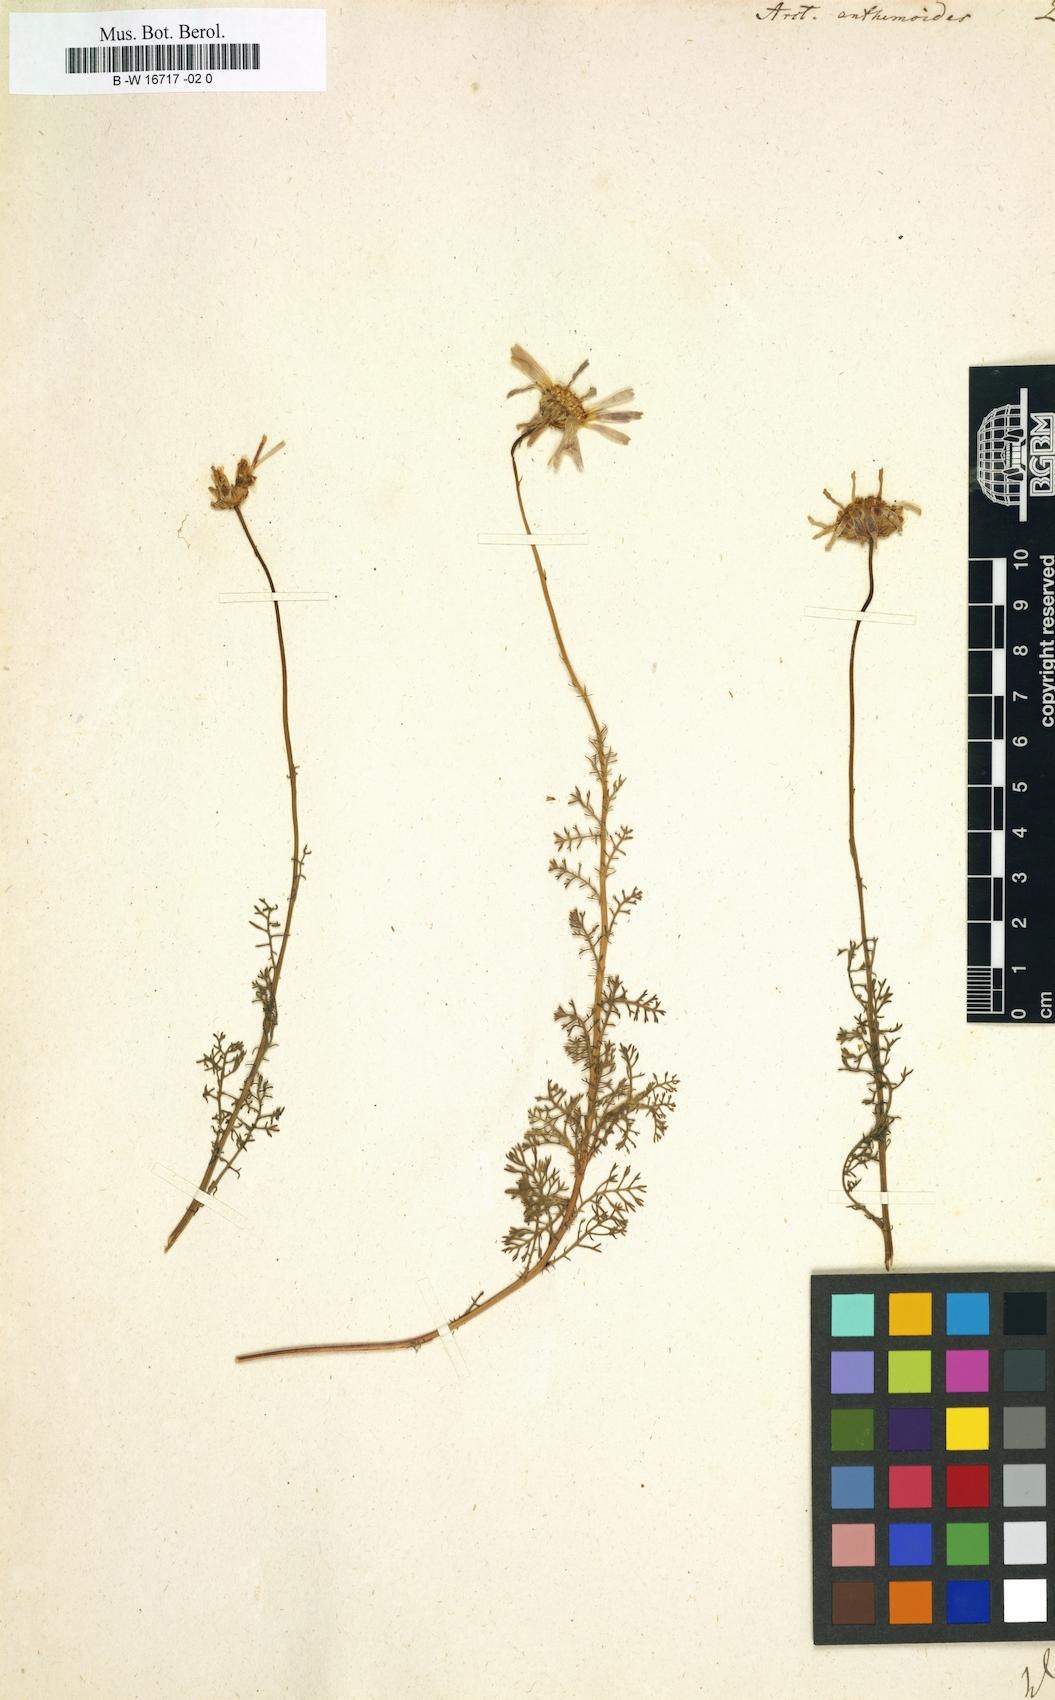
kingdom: Plantae
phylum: Tracheophyta
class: Magnoliopsida
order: Asterales
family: Asteraceae
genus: Ursinia
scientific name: Ursinia
